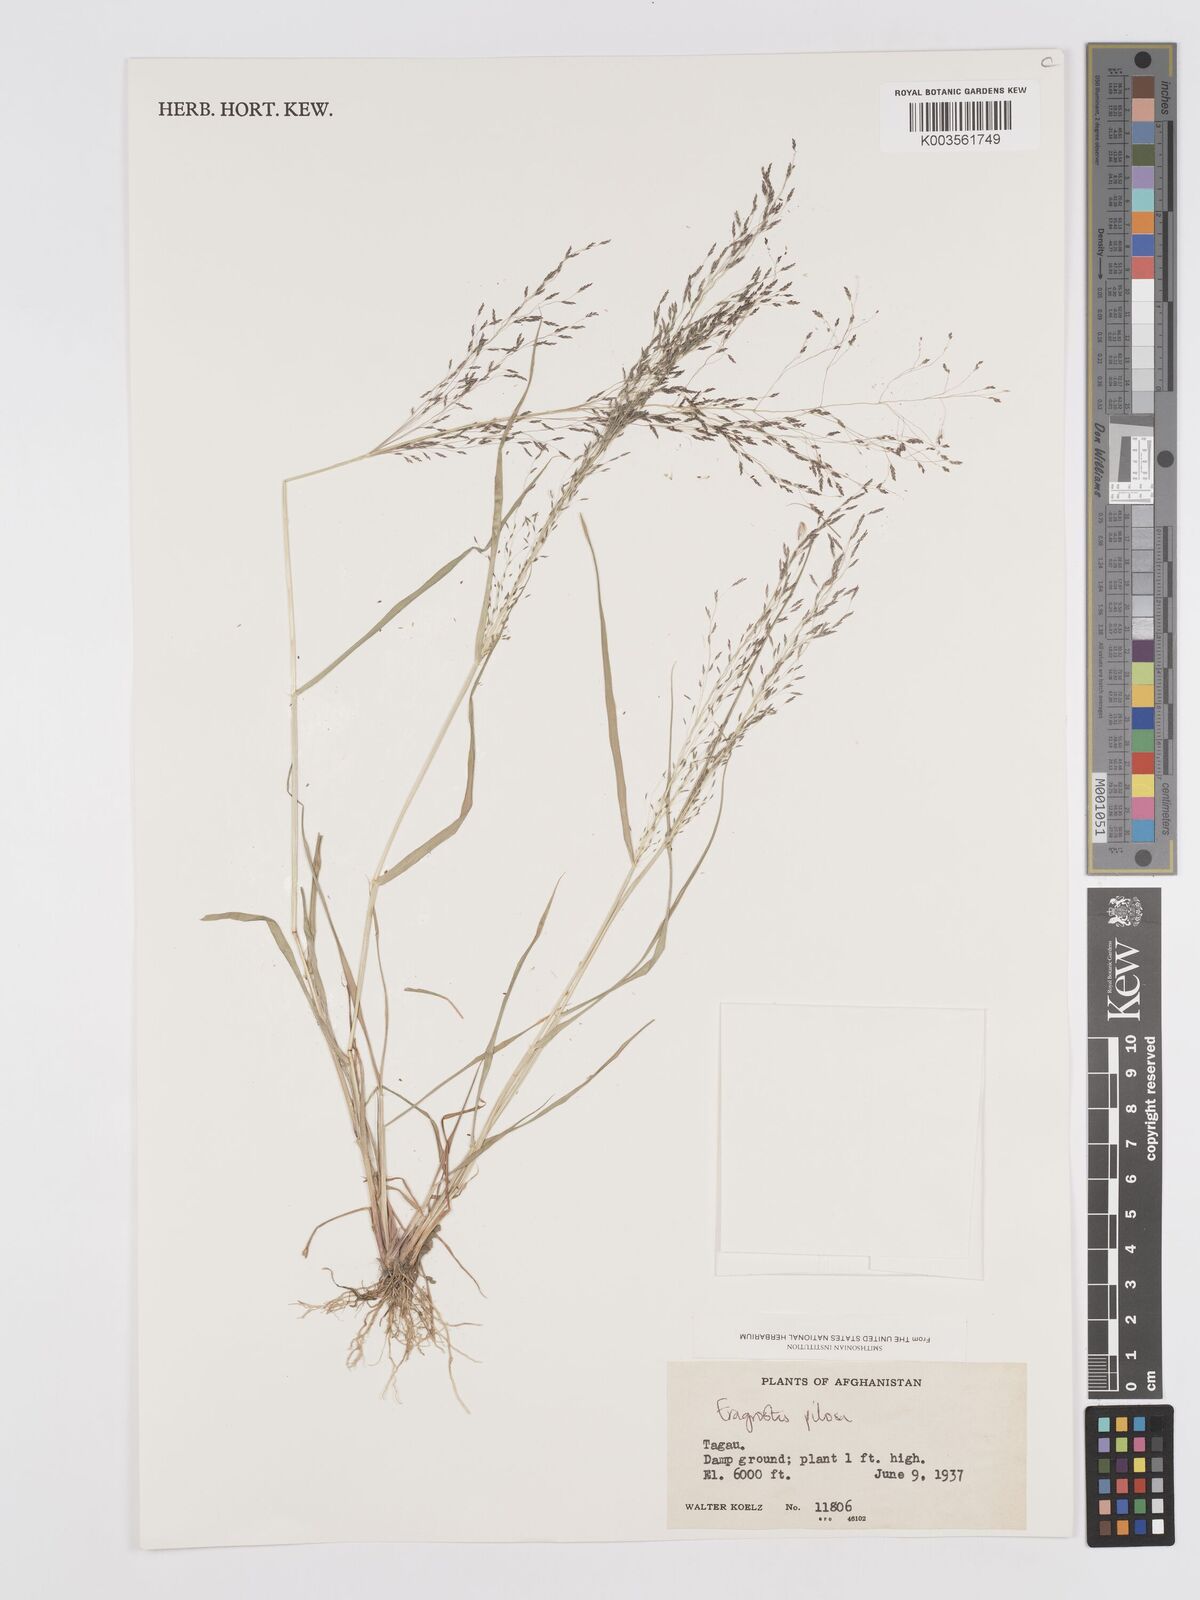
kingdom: Plantae
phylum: Tracheophyta
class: Liliopsida
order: Poales
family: Poaceae
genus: Eragrostis
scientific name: Eragrostis pilosa
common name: Indian lovegrass
